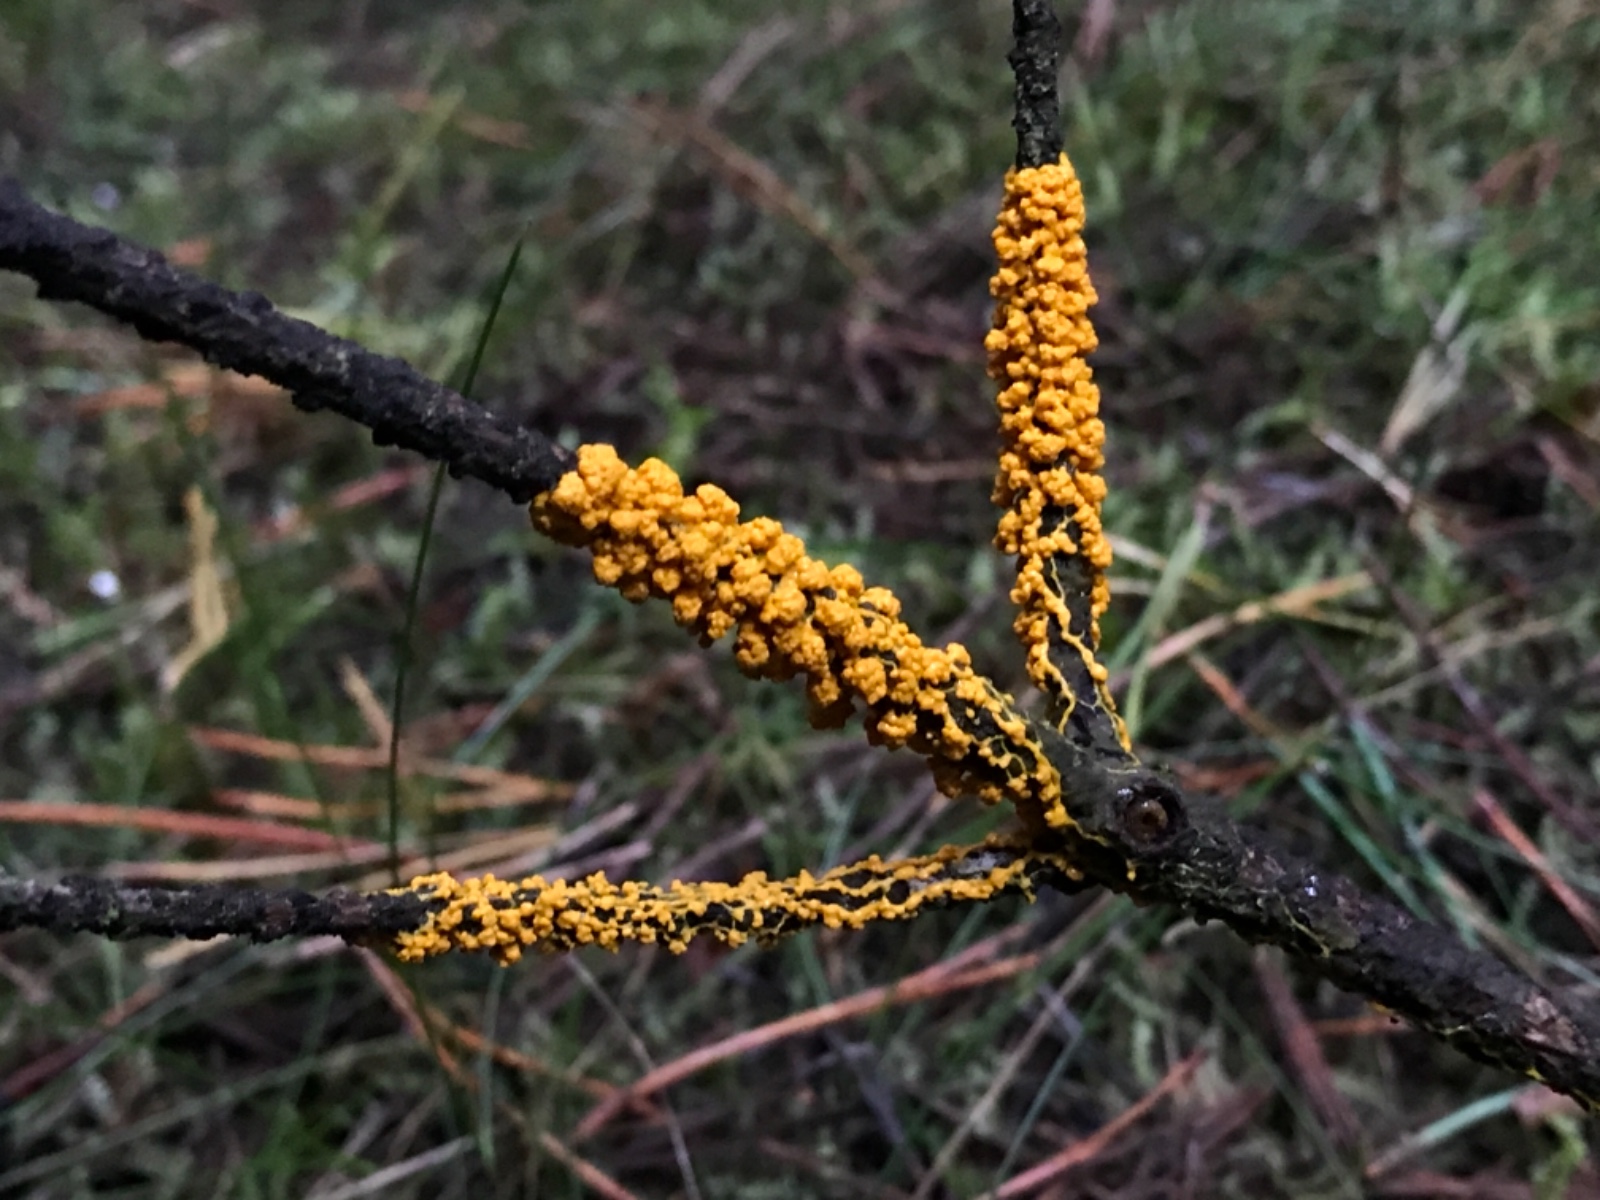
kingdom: Protozoa
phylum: Mycetozoa
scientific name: Mycetozoa
